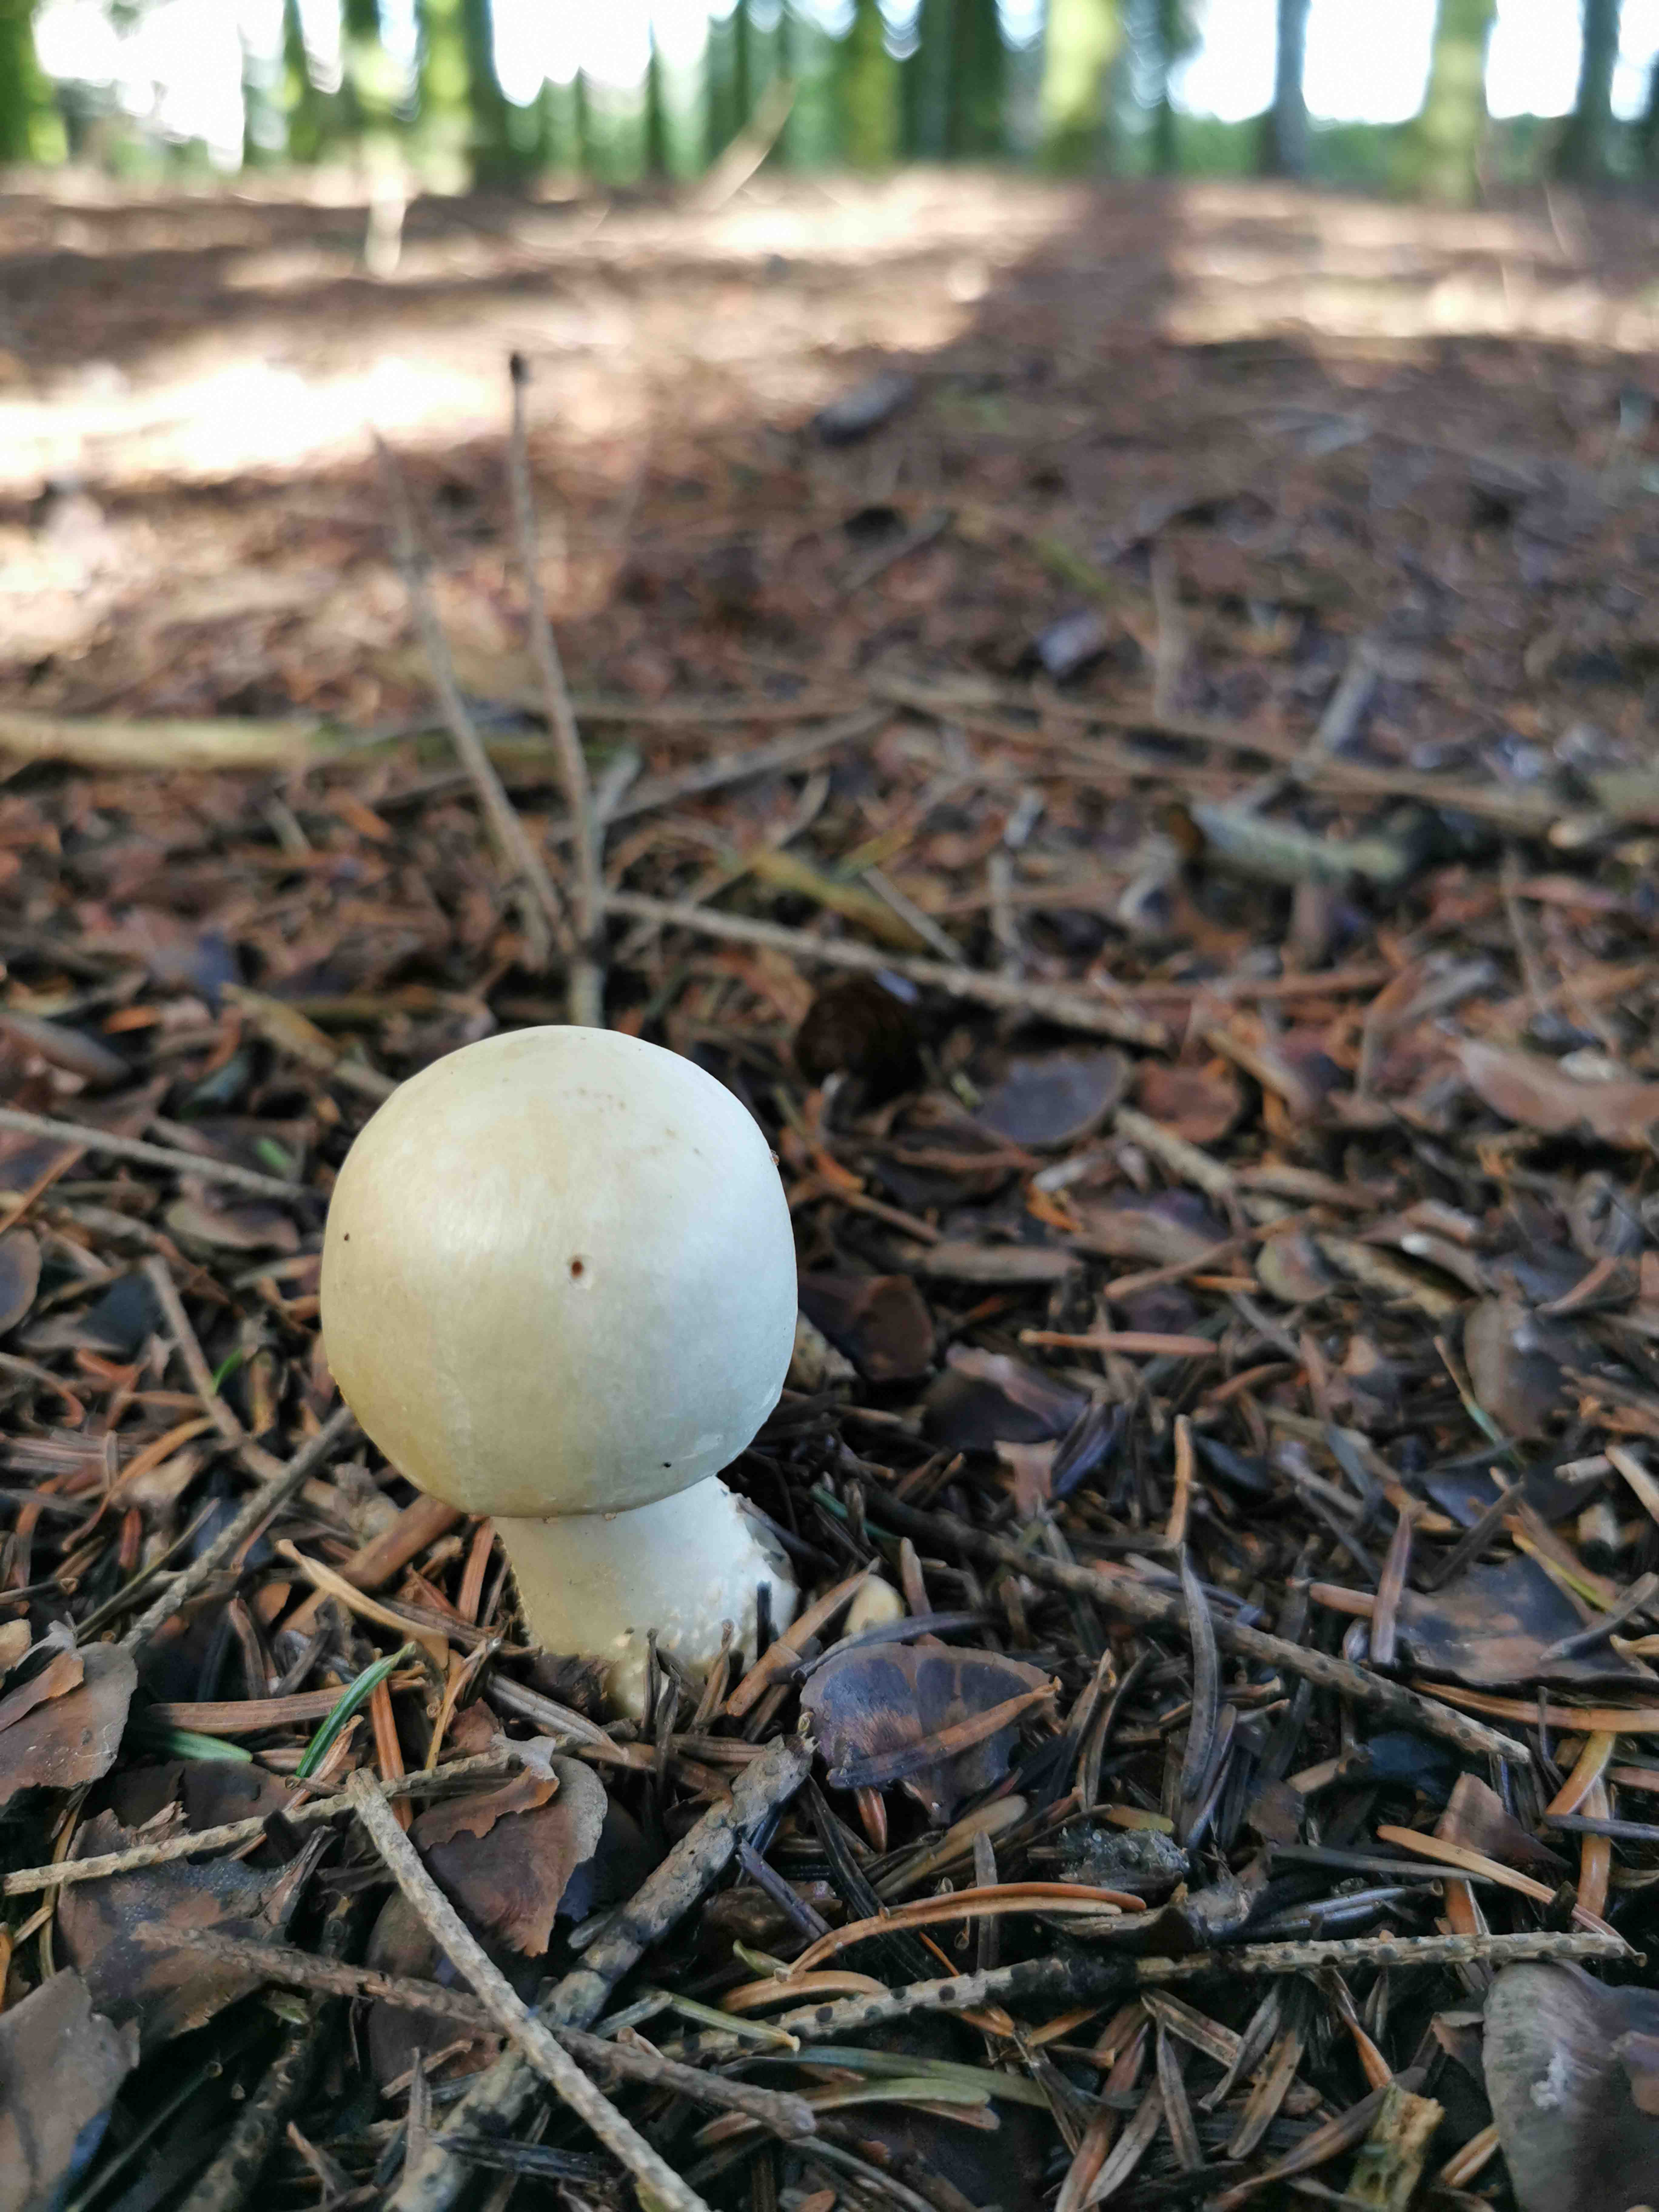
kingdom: Fungi
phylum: Basidiomycota
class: Agaricomycetes
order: Agaricales
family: Agaricaceae
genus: Agaricus
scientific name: Agaricus
